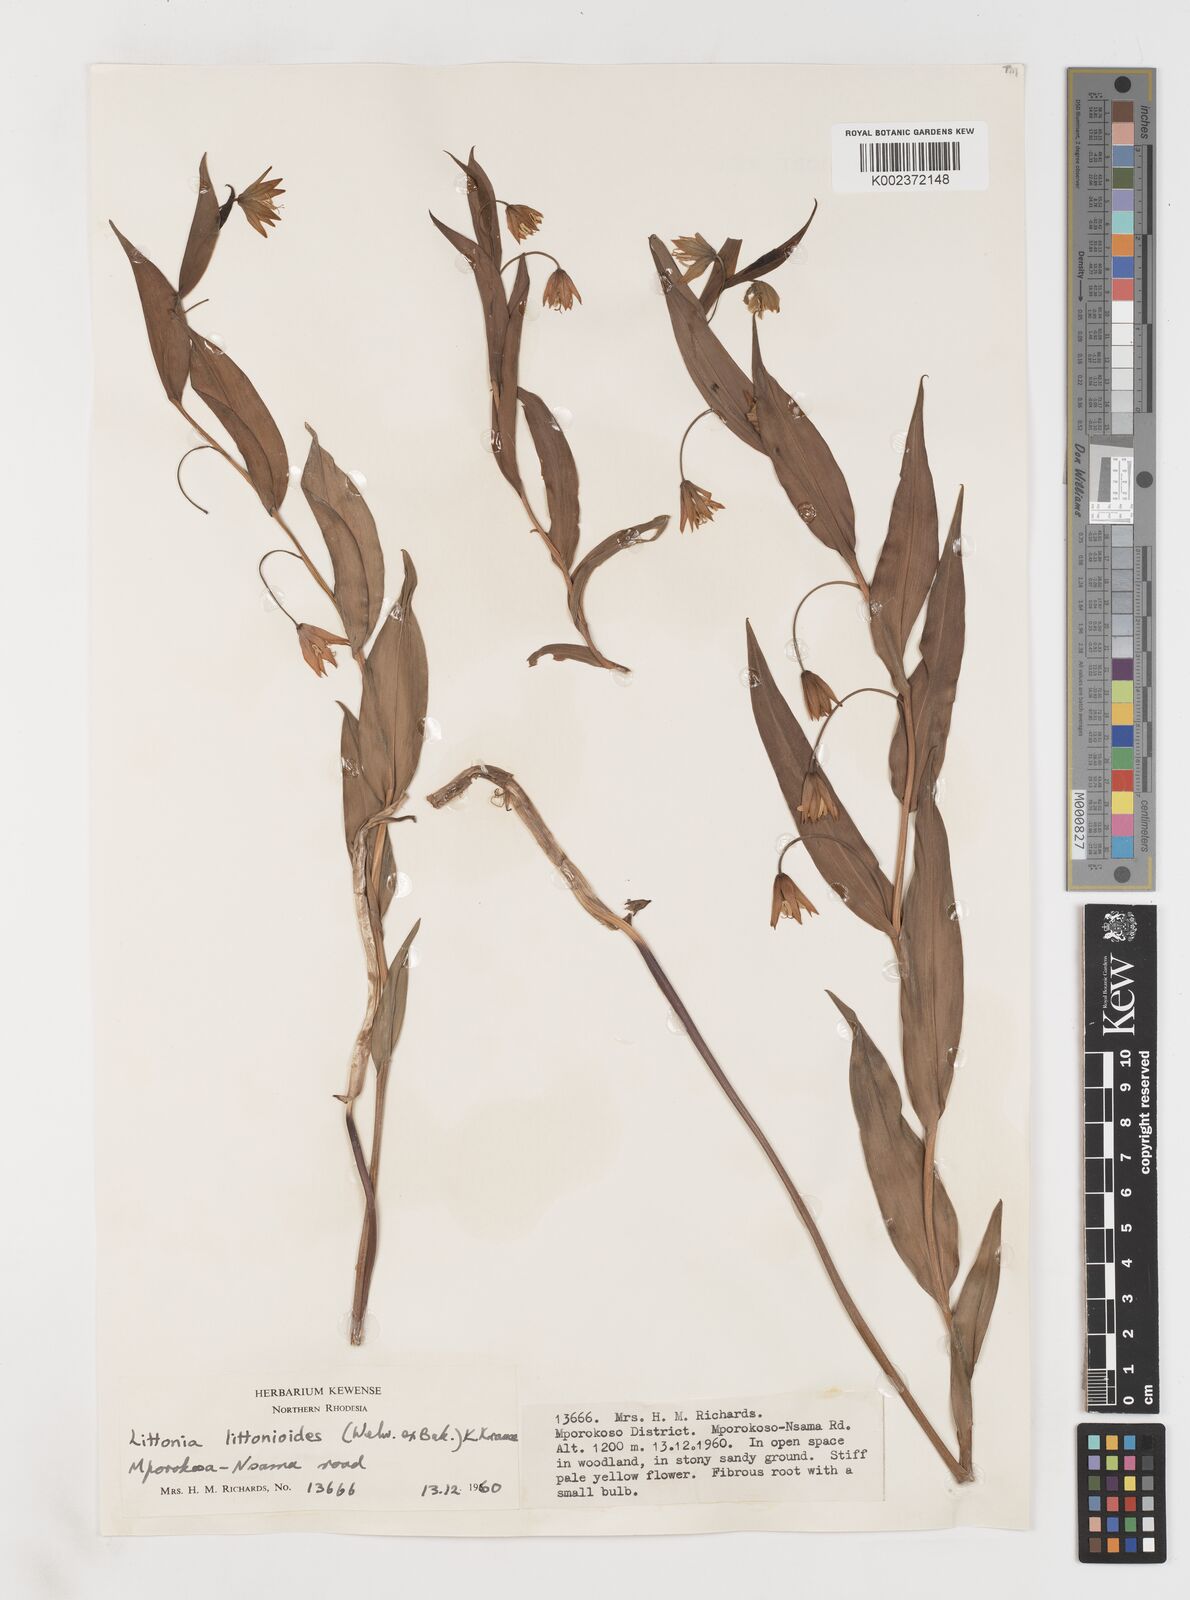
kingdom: Plantae
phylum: Tracheophyta
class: Liliopsida
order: Liliales
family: Colchicaceae
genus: Gloriosa
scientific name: Gloriosa littonioides
